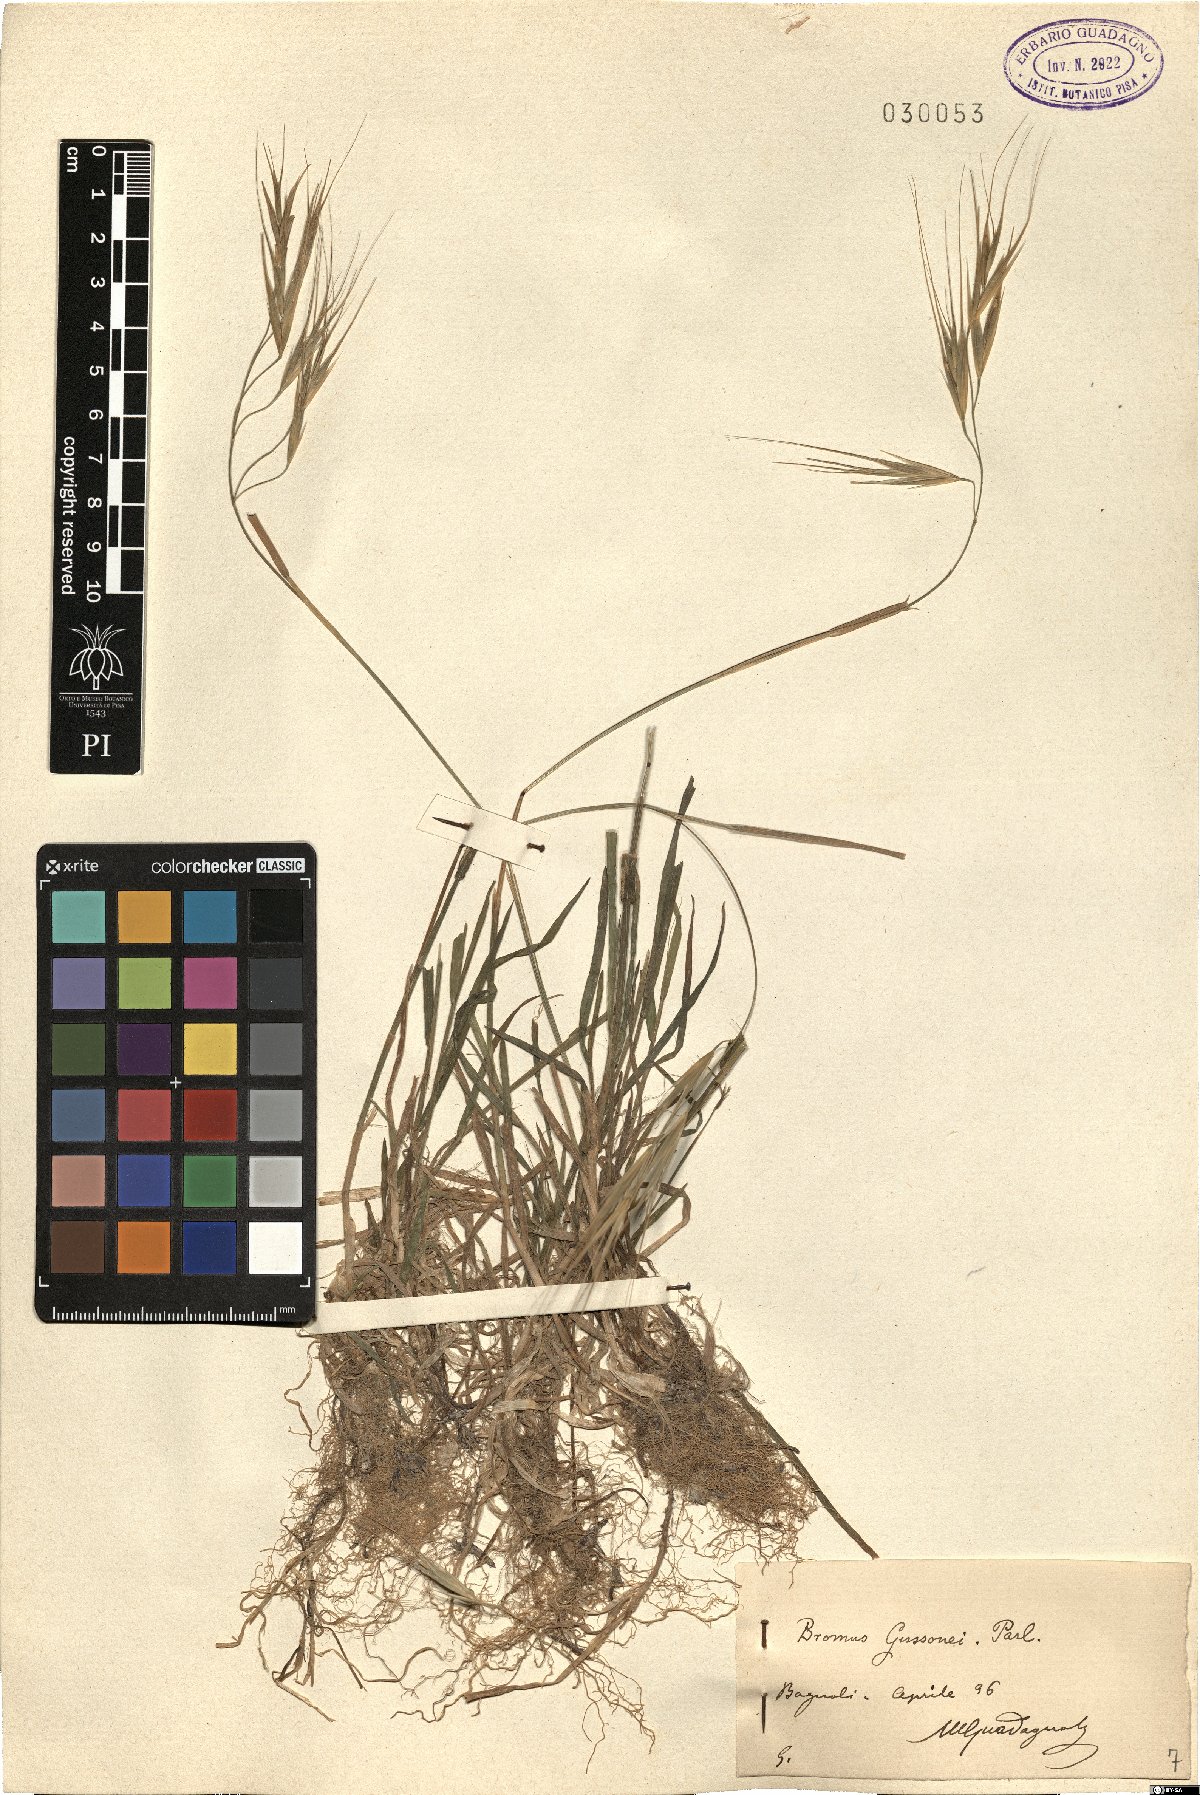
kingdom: Plantae
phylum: Tracheophyta
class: Liliopsida
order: Poales
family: Poaceae
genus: Bromus
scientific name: Bromus diandrus
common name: Ripgut brome
